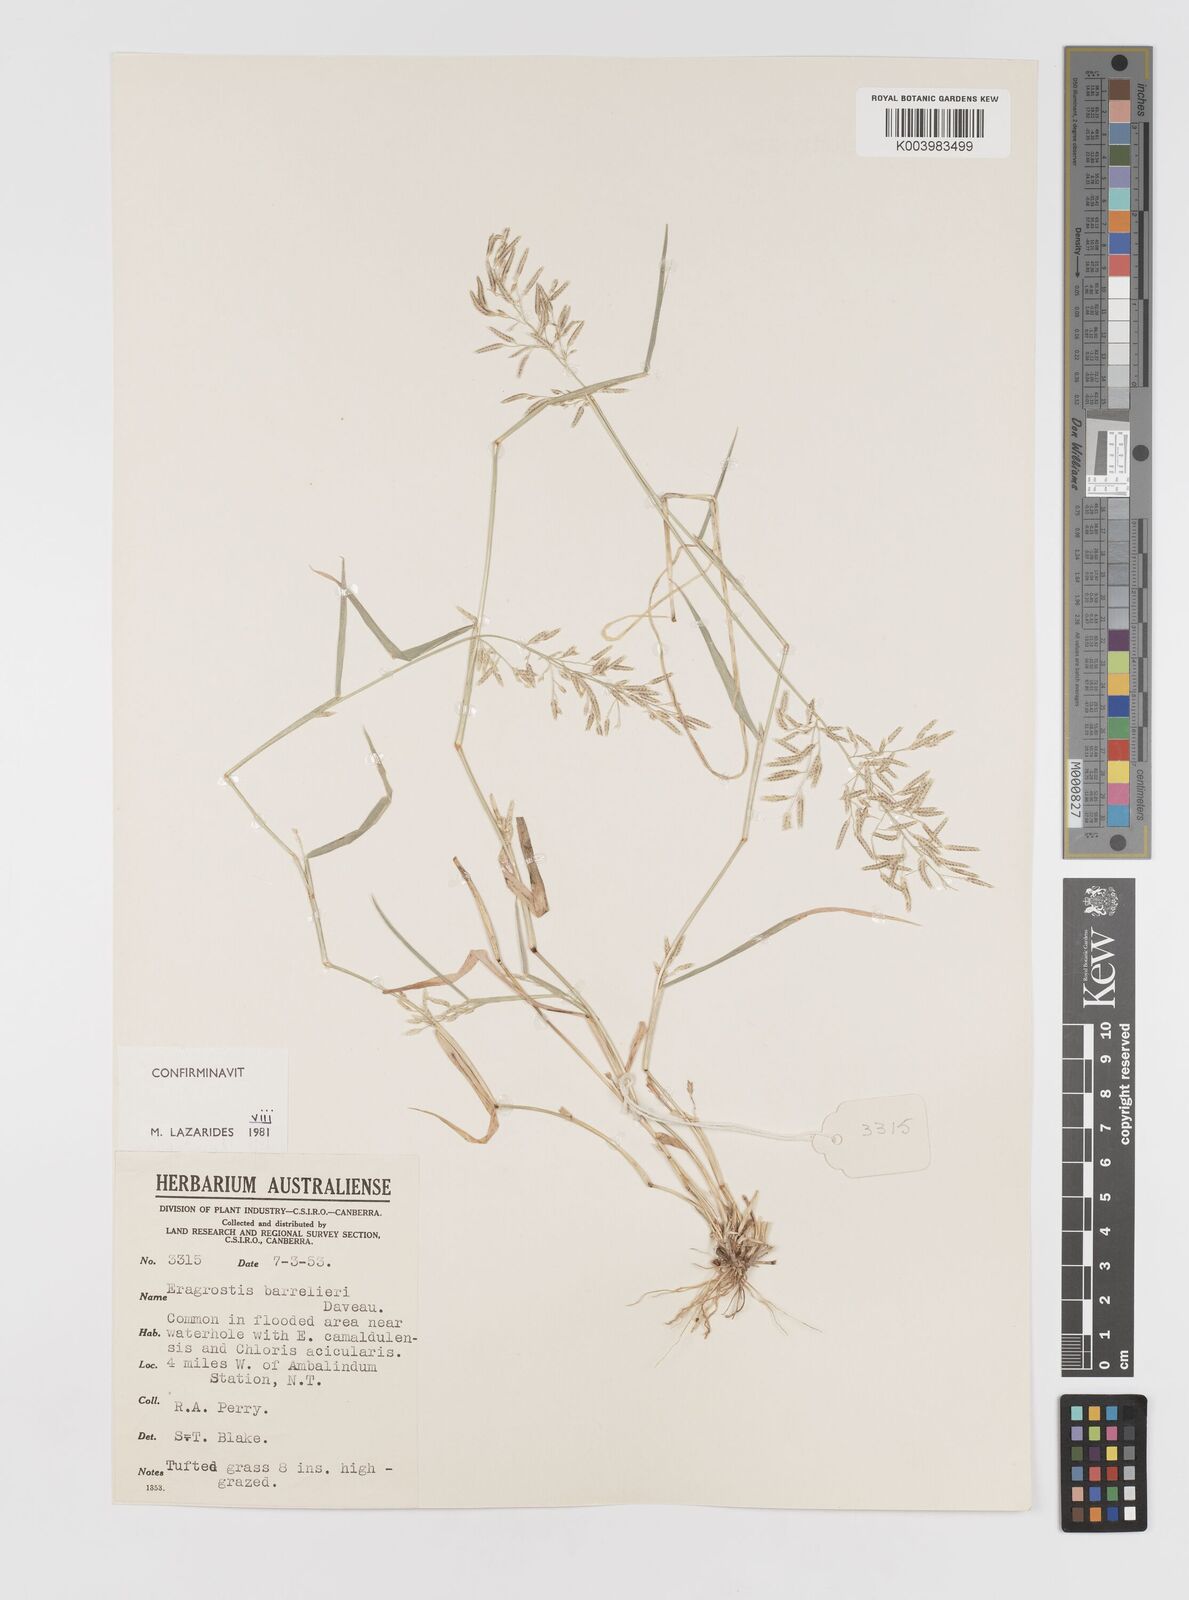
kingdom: Plantae
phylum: Tracheophyta
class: Liliopsida
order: Poales
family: Poaceae
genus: Eragrostis
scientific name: Eragrostis barrelieri
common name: Mediterranean lovegrass
